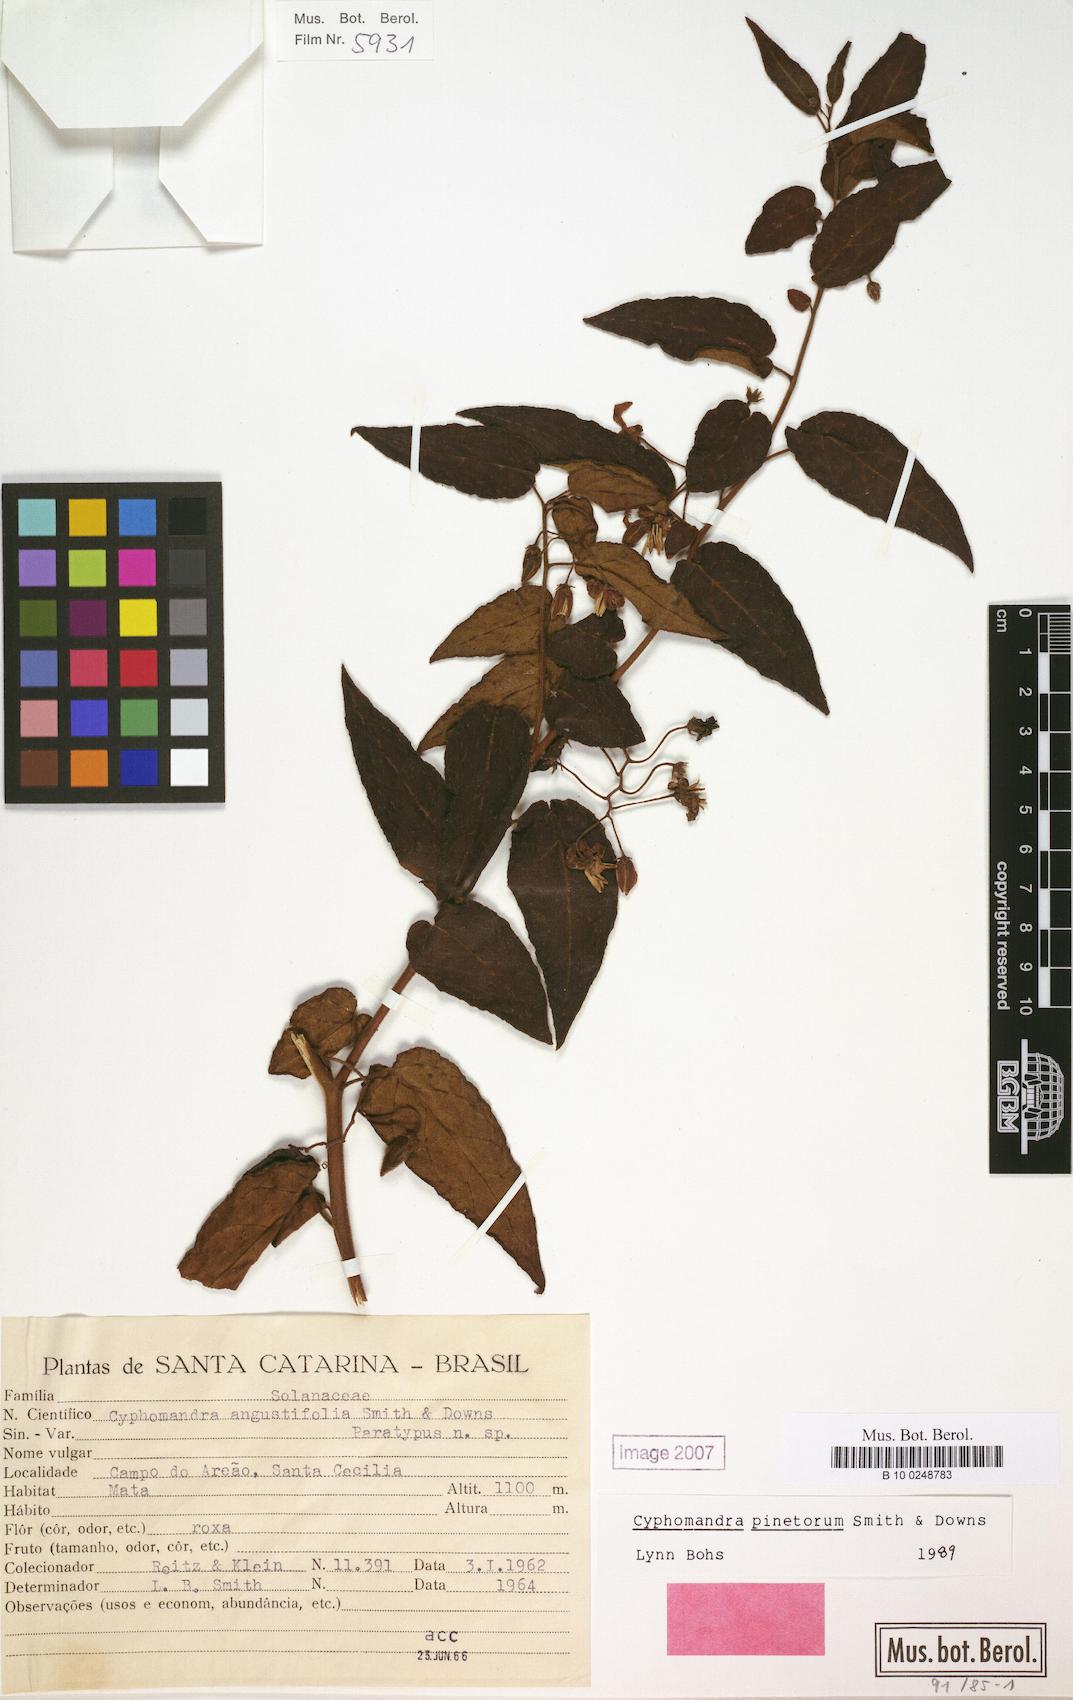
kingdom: Plantae
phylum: Tracheophyta
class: Magnoliopsida
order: Solanales
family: Solanaceae
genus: Solanum
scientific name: Solanum pinetorum
